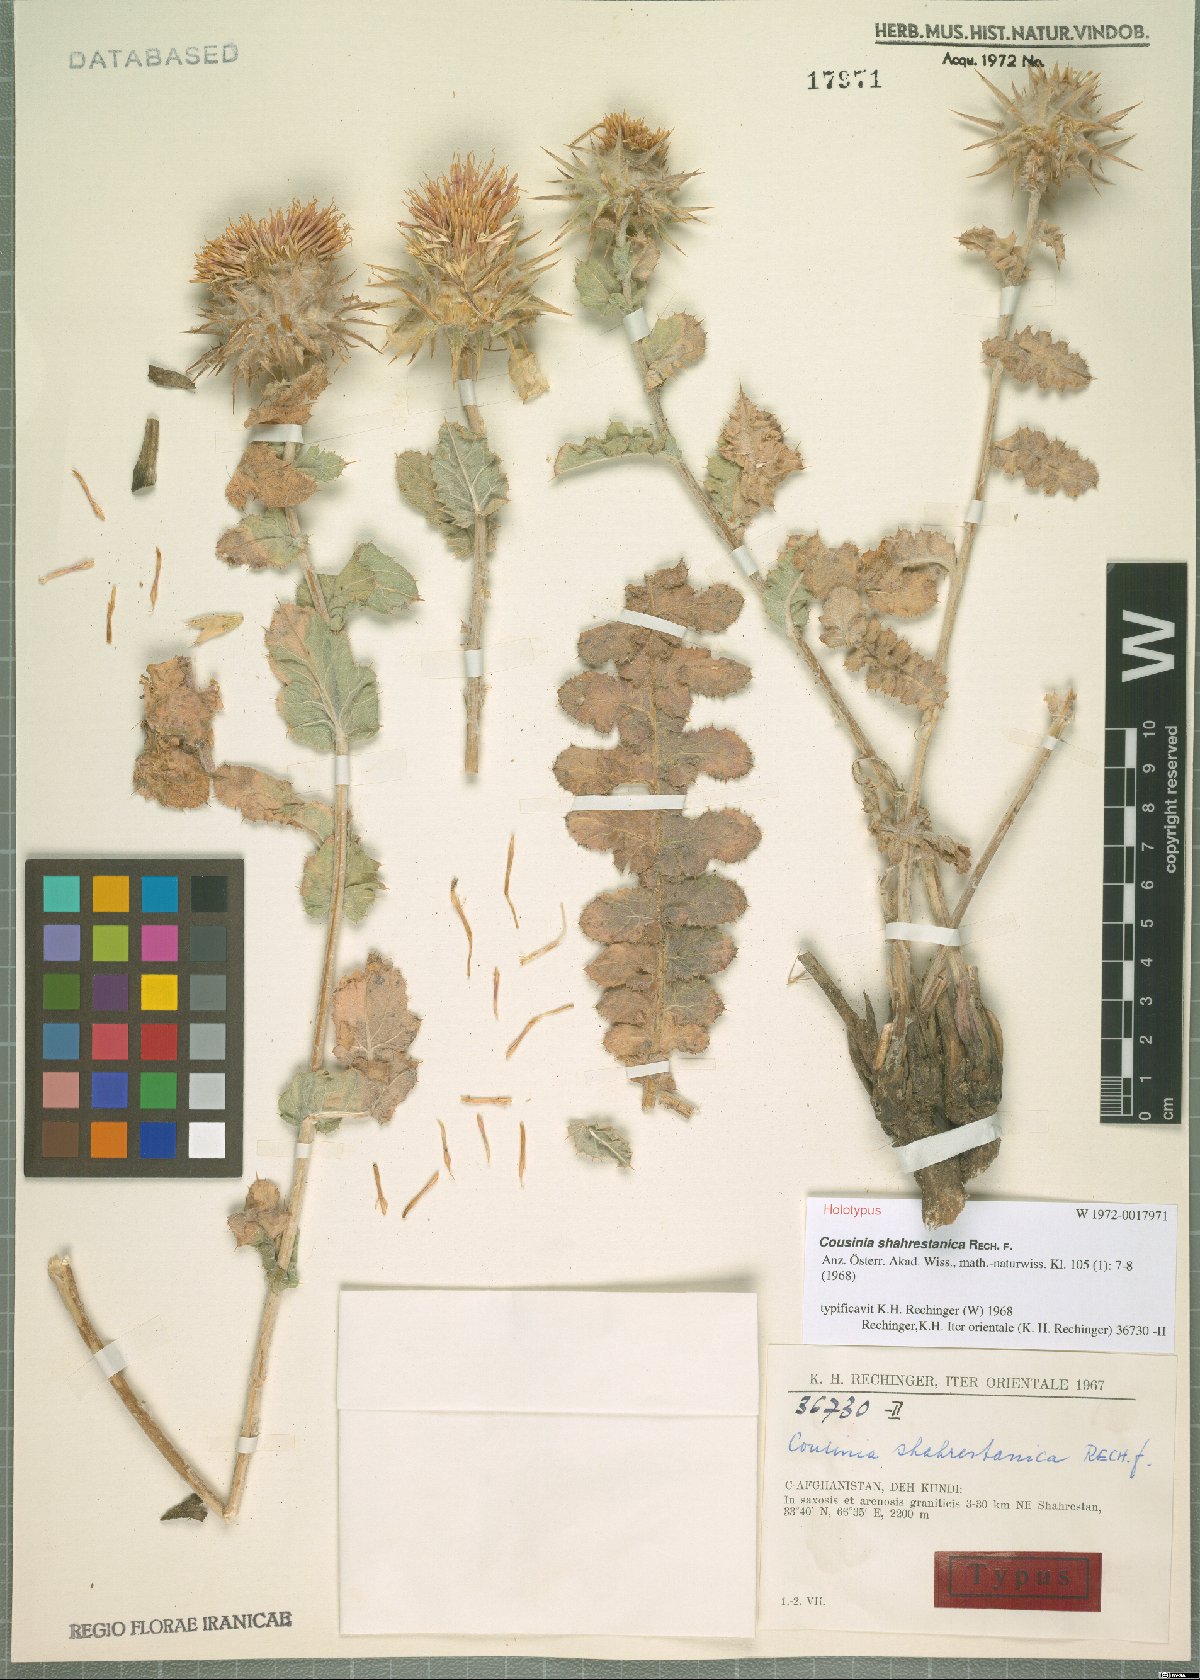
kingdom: Plantae
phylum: Tracheophyta
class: Magnoliopsida
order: Asterales
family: Asteraceae
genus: Cousinia
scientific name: Cousinia shahrestanica
